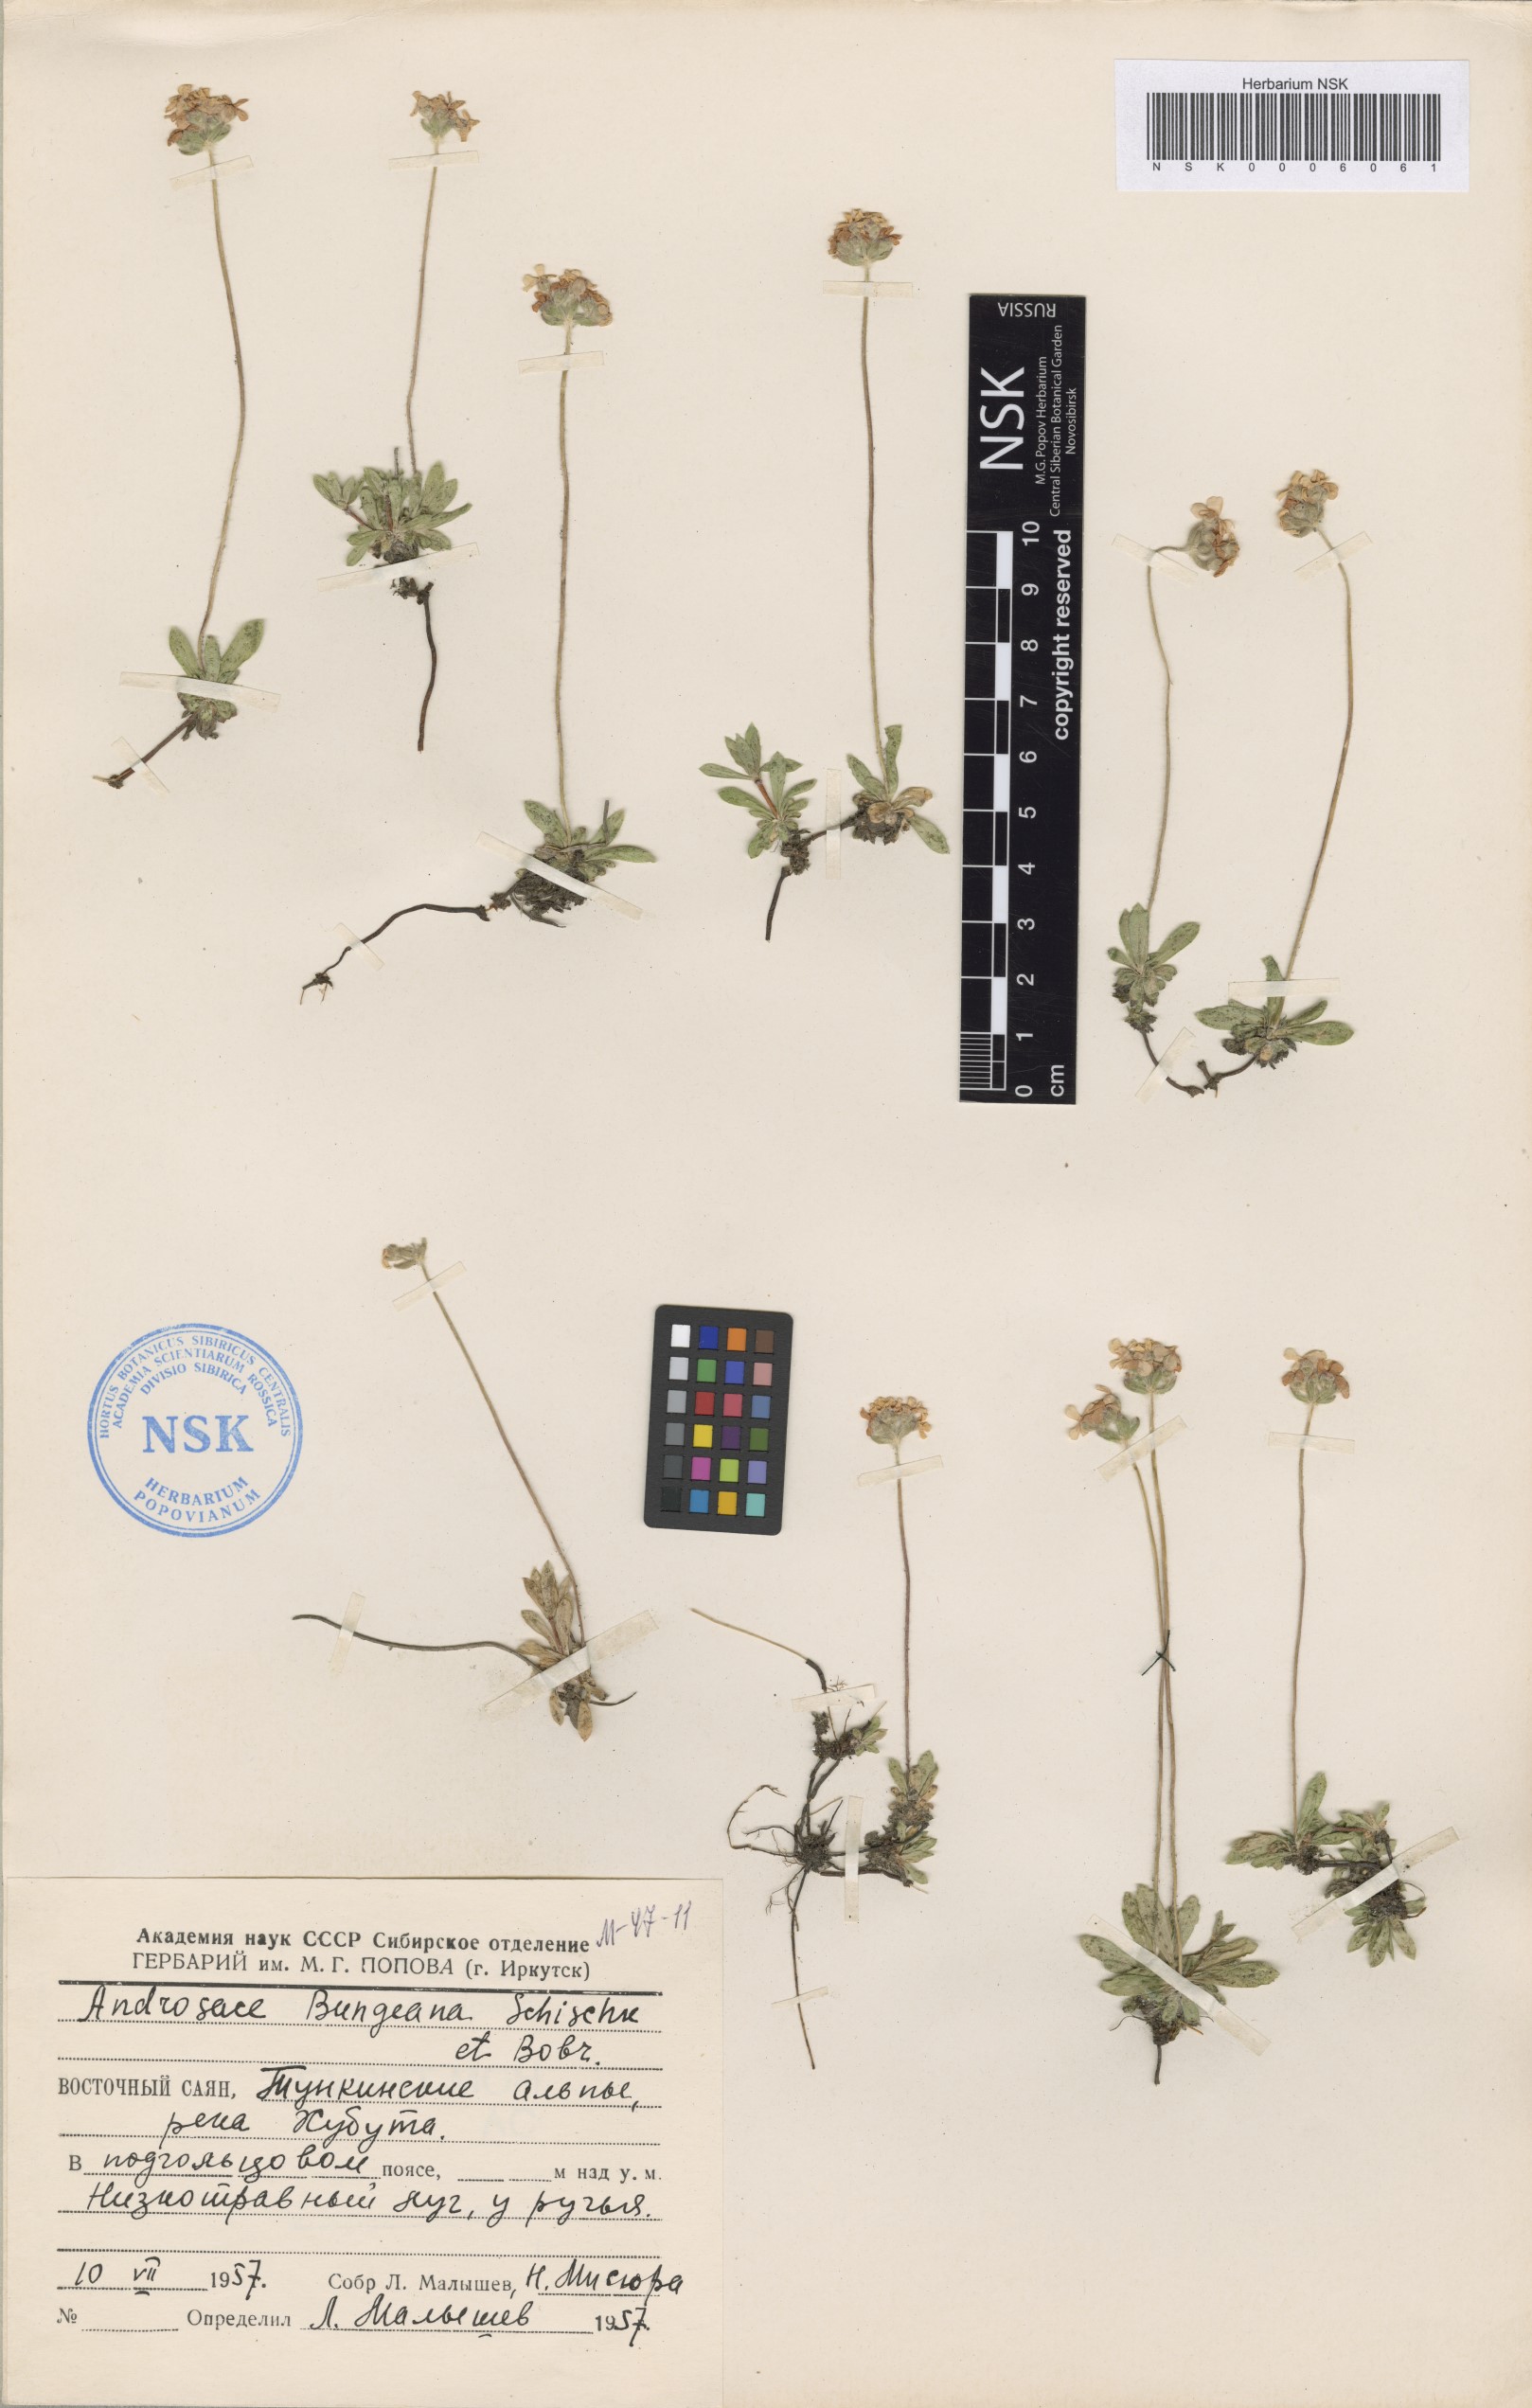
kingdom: Plantae
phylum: Tracheophyta
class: Magnoliopsida
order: Ericales
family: Primulaceae
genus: Androsace
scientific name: Androsace bungeana
